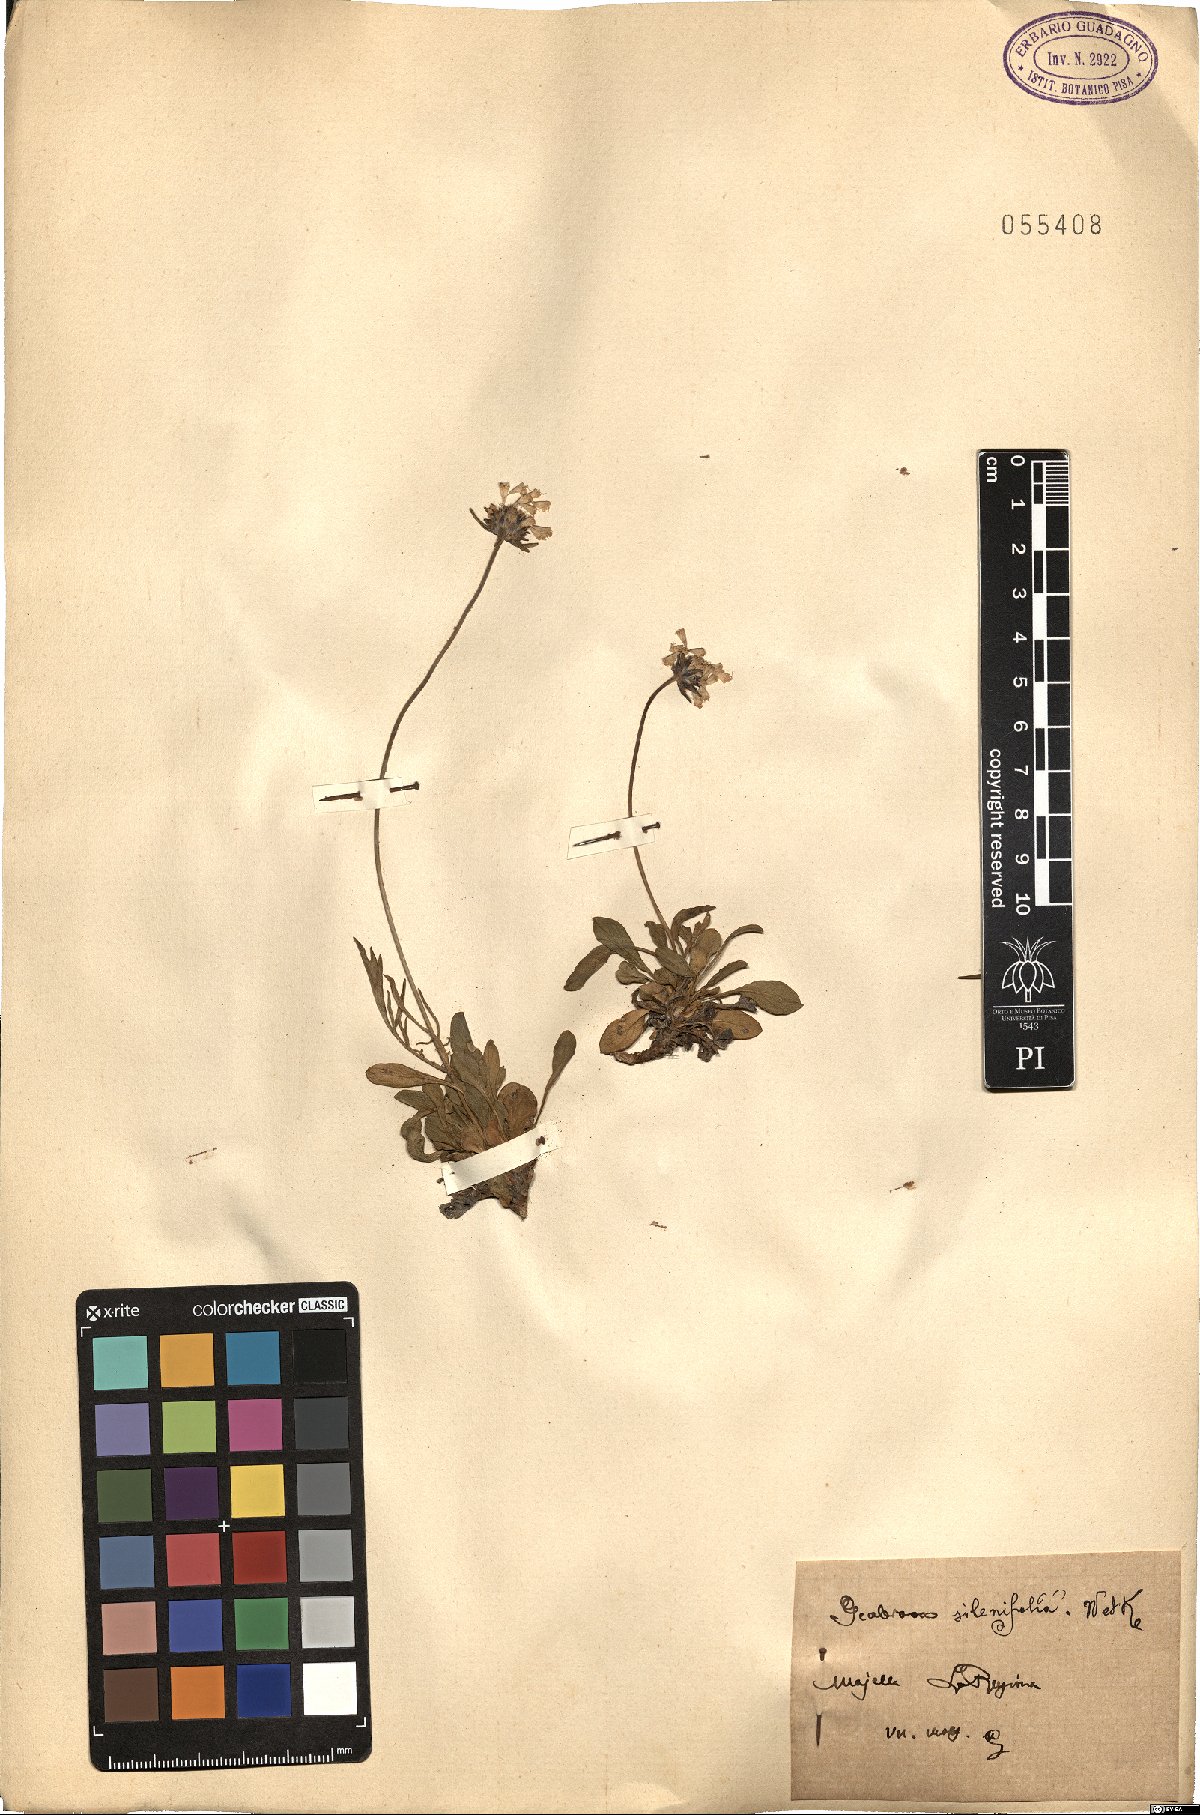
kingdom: Plantae
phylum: Tracheophyta
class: Magnoliopsida
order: Dipsacales
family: Caprifoliaceae
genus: Scabiosa
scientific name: Scabiosa silenifolia
